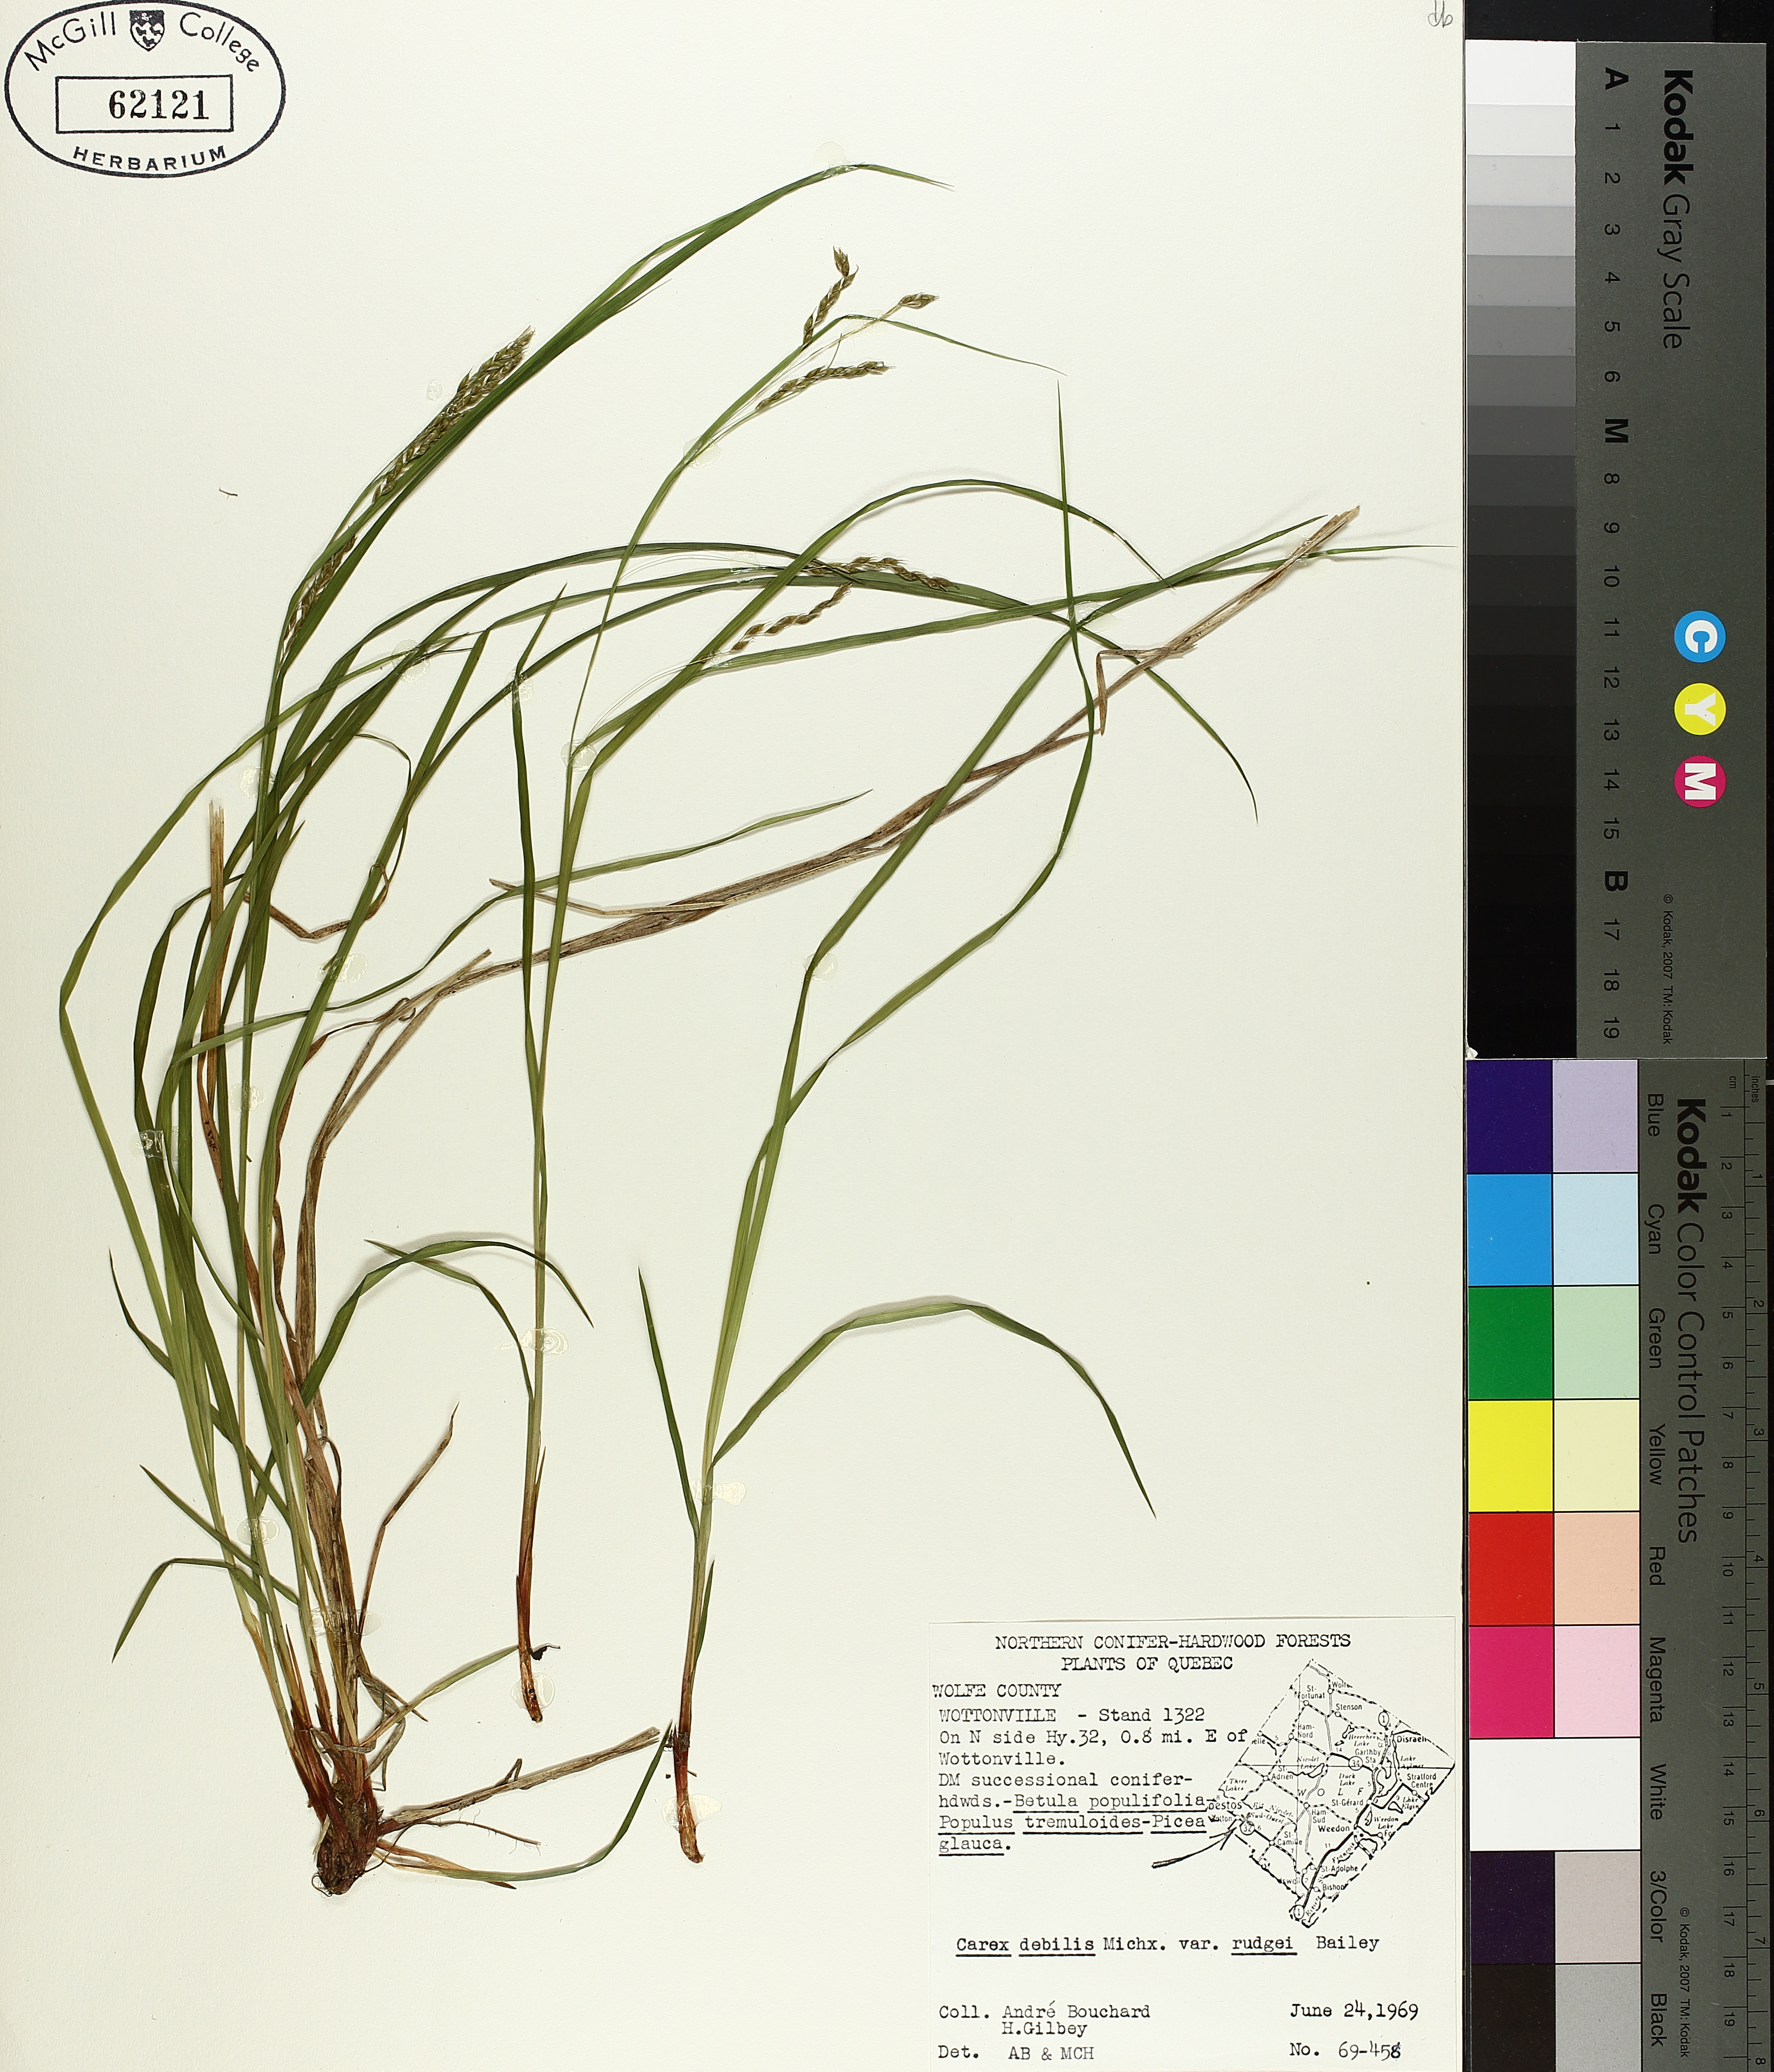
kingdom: Plantae
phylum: Tracheophyta
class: Liliopsida
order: Poales
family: Cyperaceae
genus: Carex
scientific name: Carex debilis
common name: White-edge sedge
